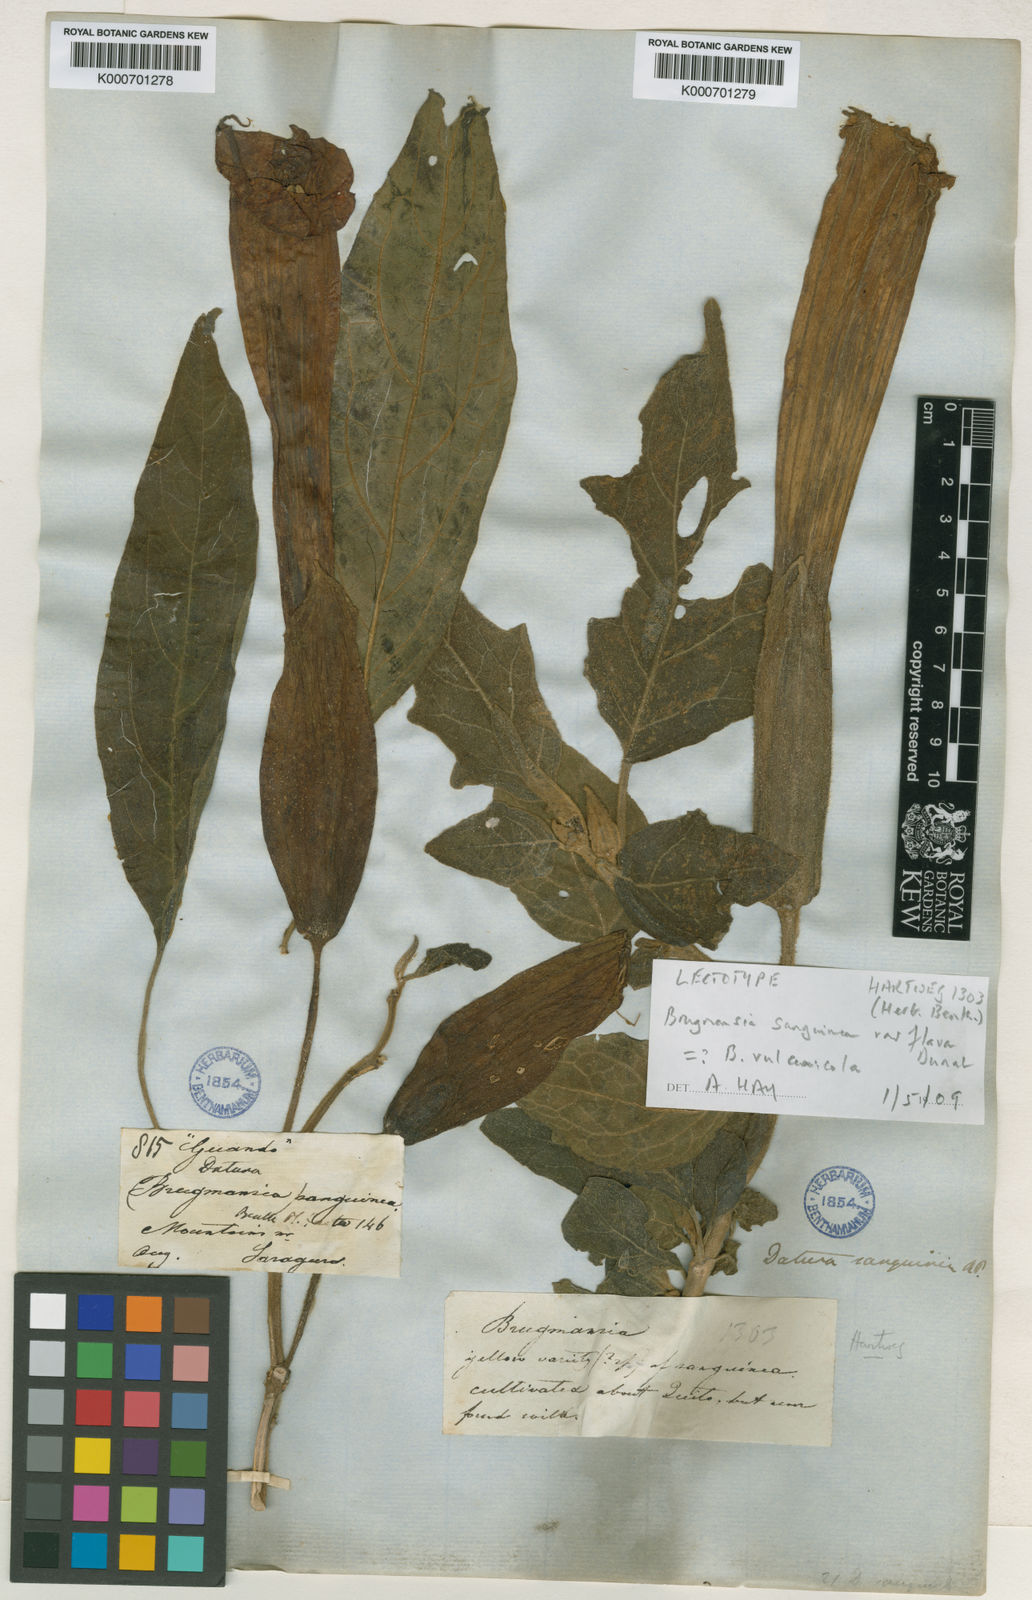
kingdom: Plantae
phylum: Tracheophyta
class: Magnoliopsida
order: Solanales
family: Solanaceae
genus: Brugmansia
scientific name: Brugmansia vulcanicola
